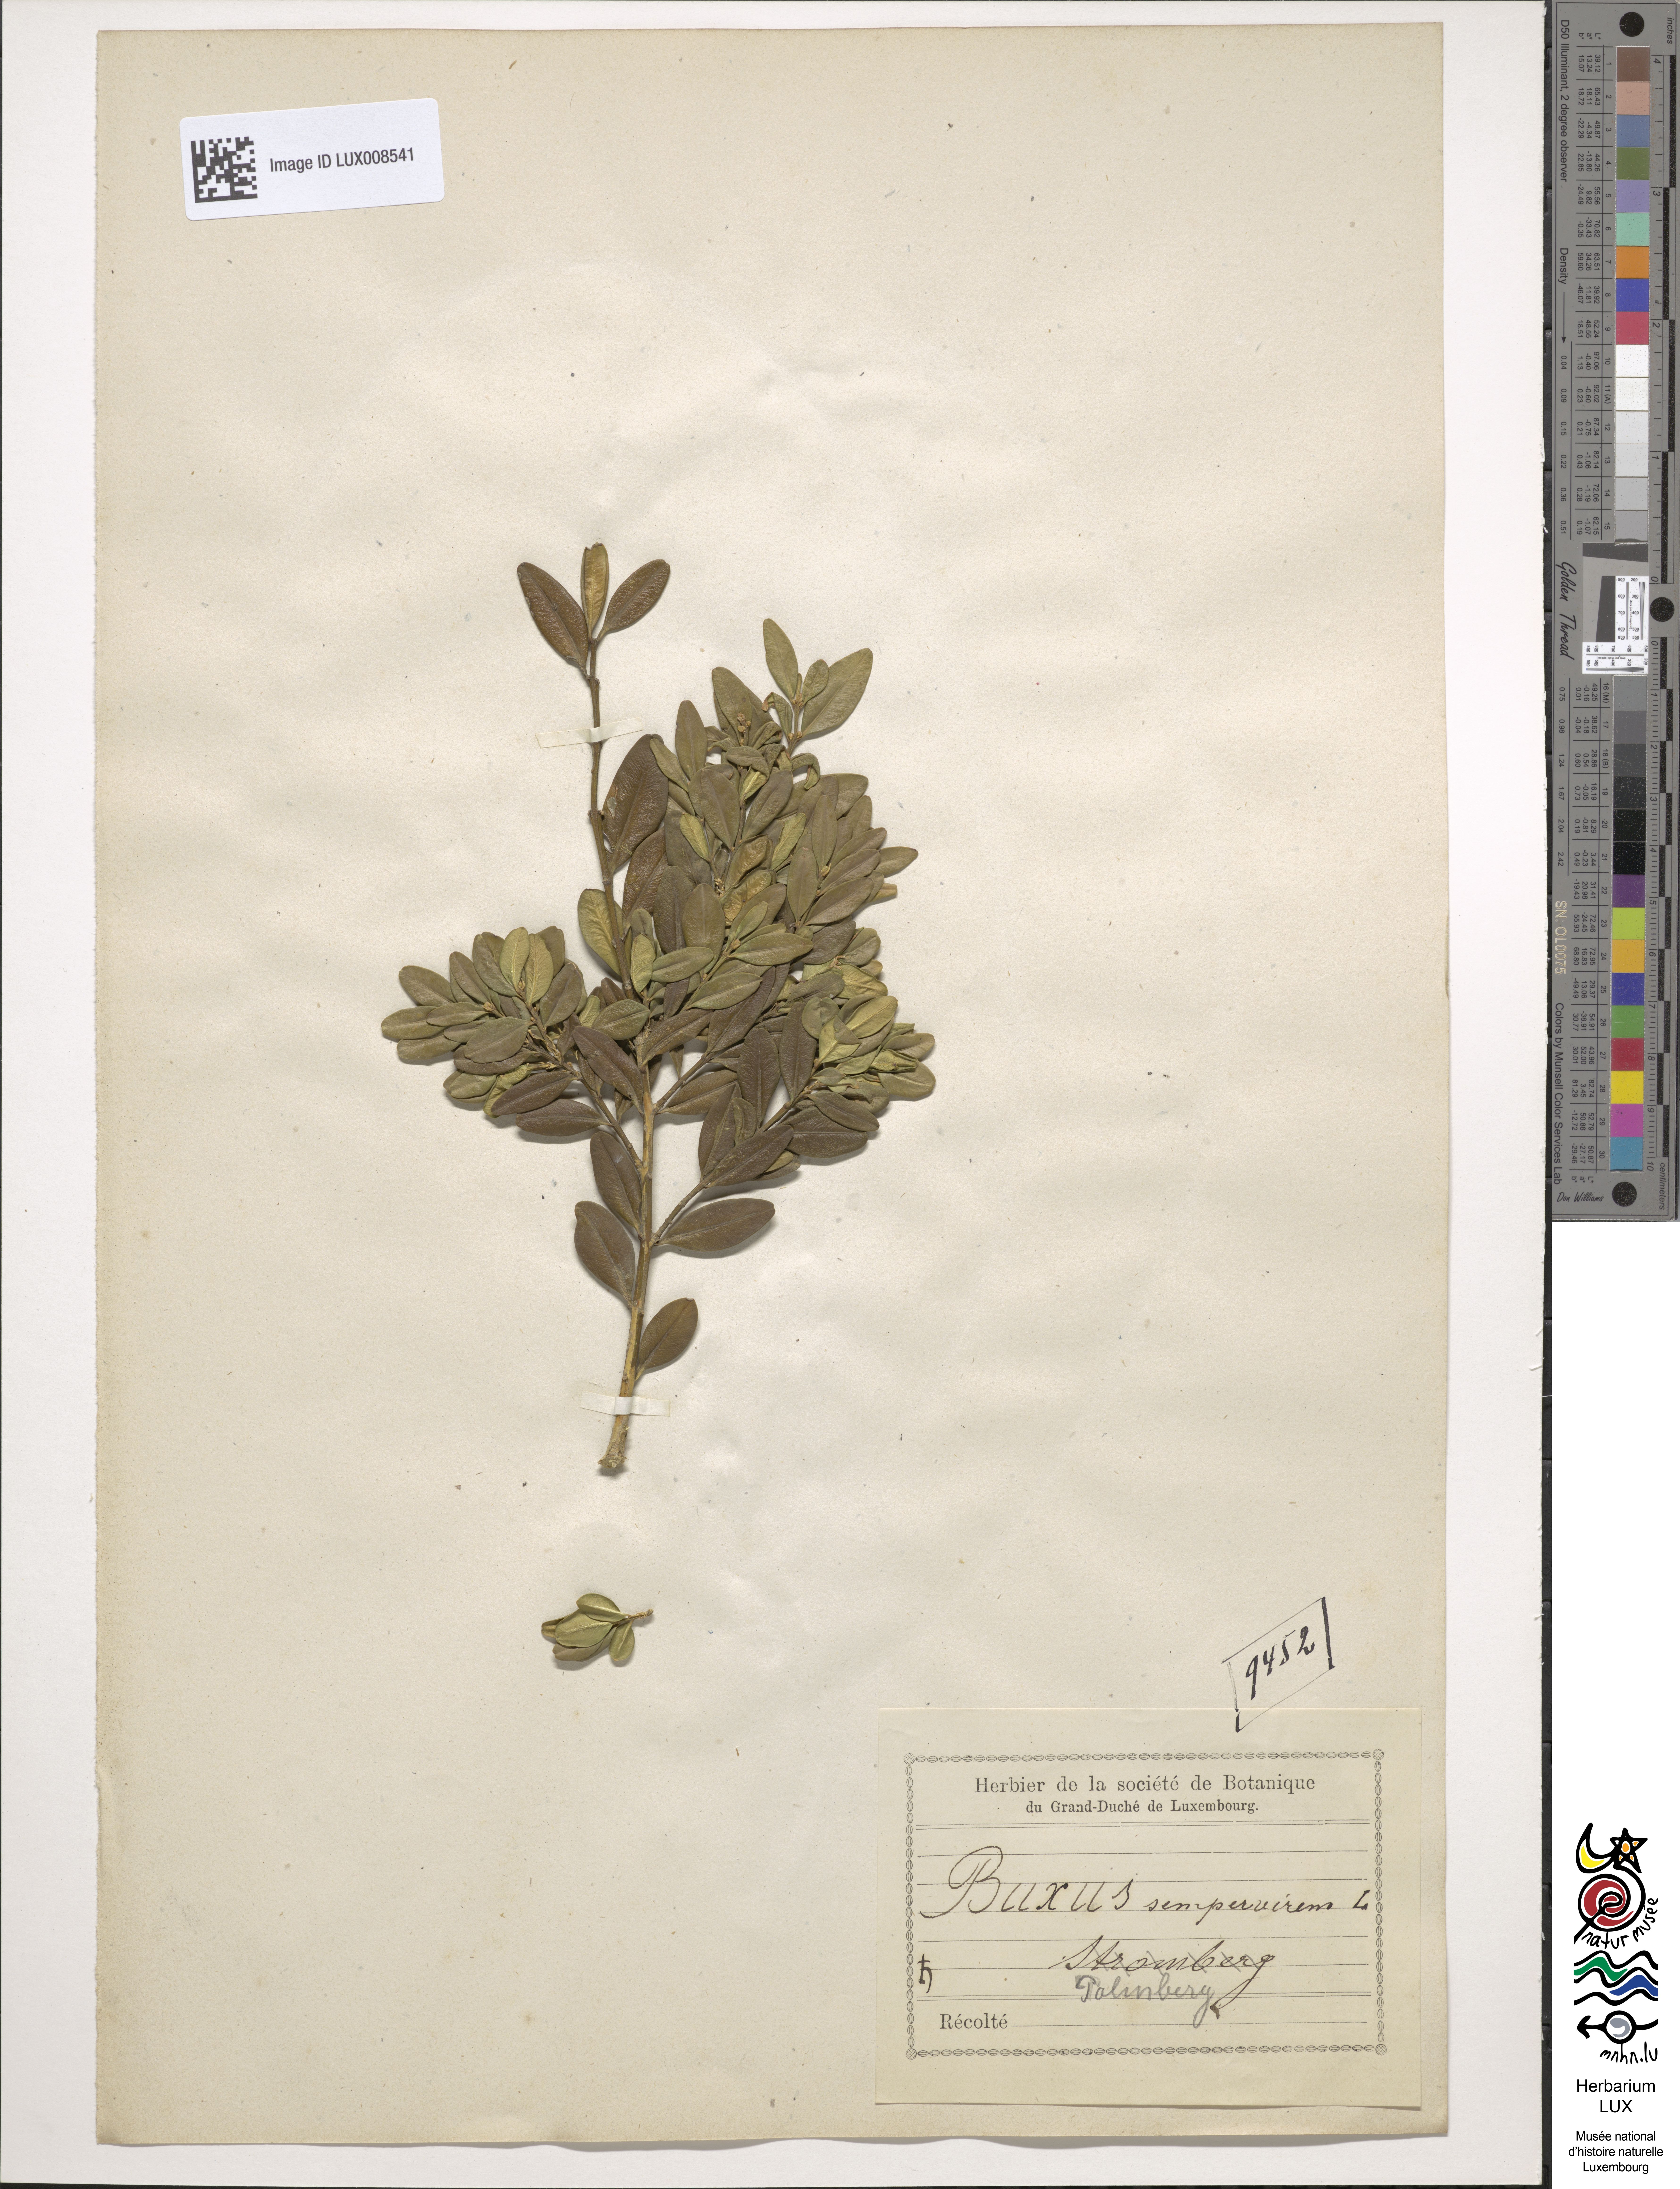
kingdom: Plantae
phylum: Tracheophyta
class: Magnoliopsida
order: Buxales
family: Buxaceae
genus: Buxus
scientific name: Buxus sempervirens
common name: Box
